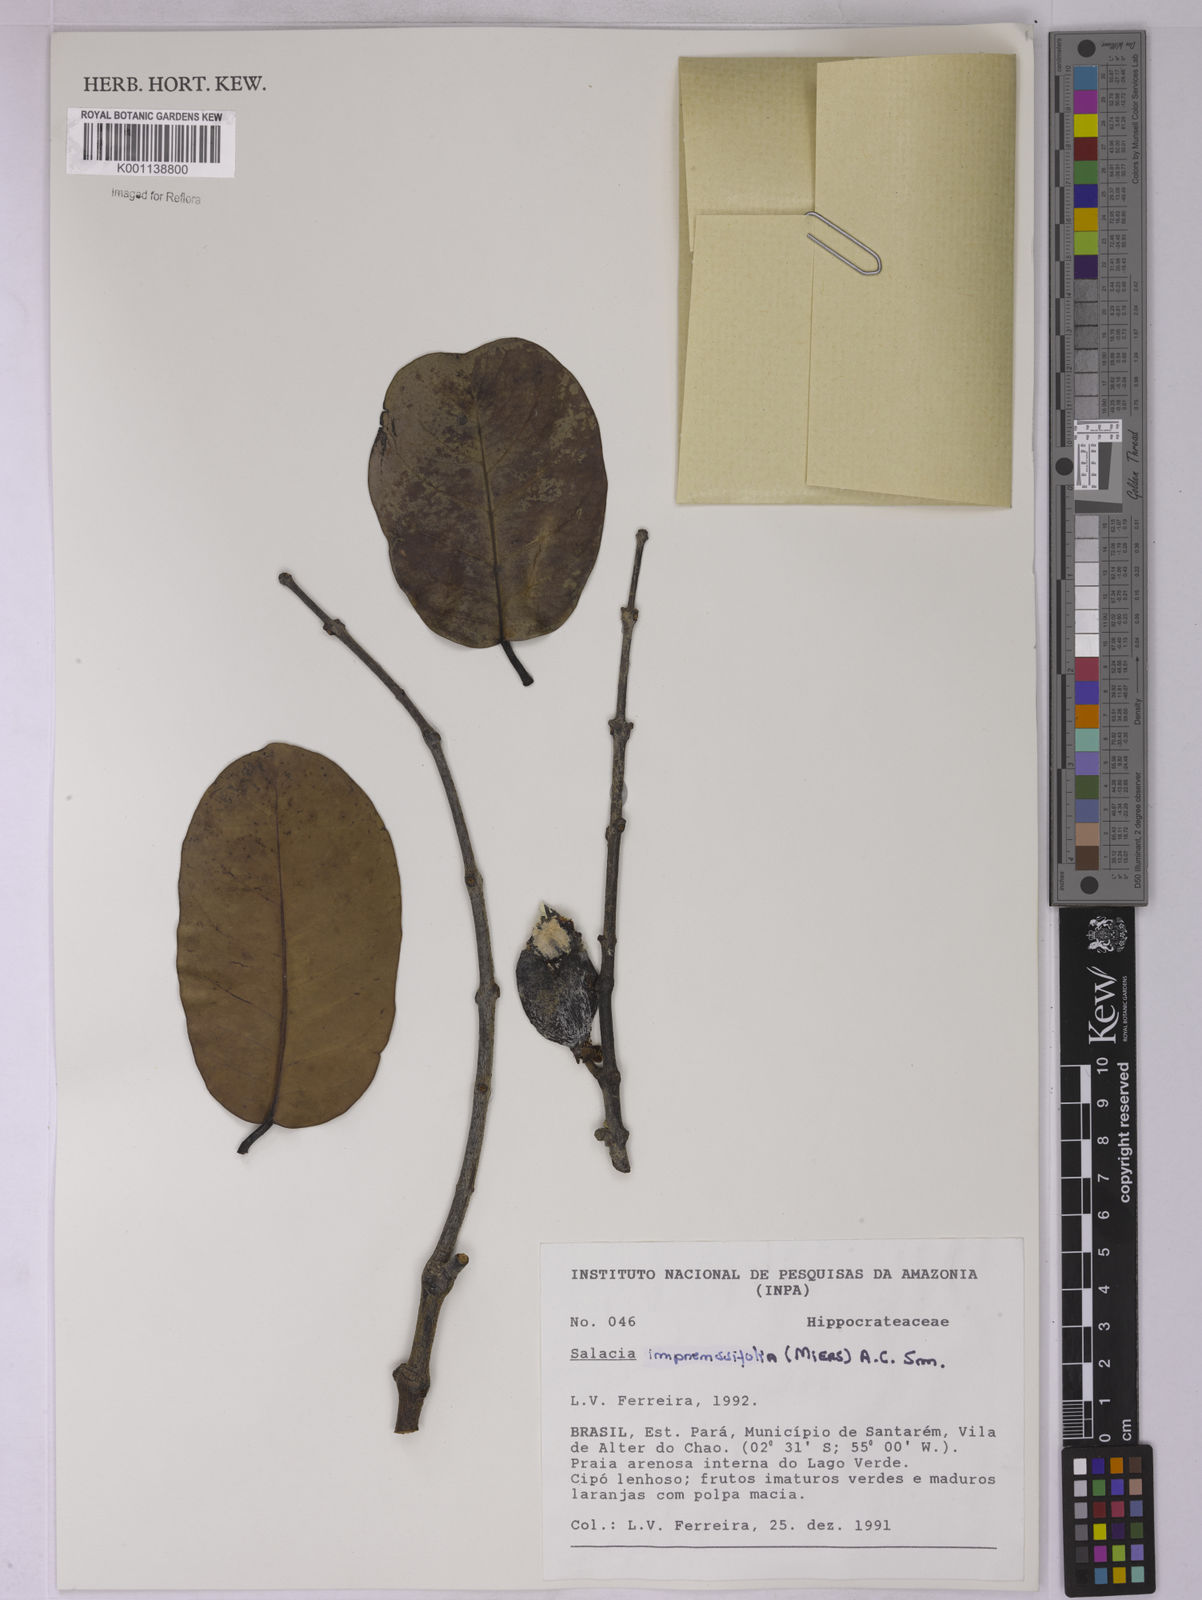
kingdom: Plantae
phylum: Tracheophyta
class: Magnoliopsida
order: Celastrales
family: Celastraceae
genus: Salacia
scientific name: Salacia impressifolia
